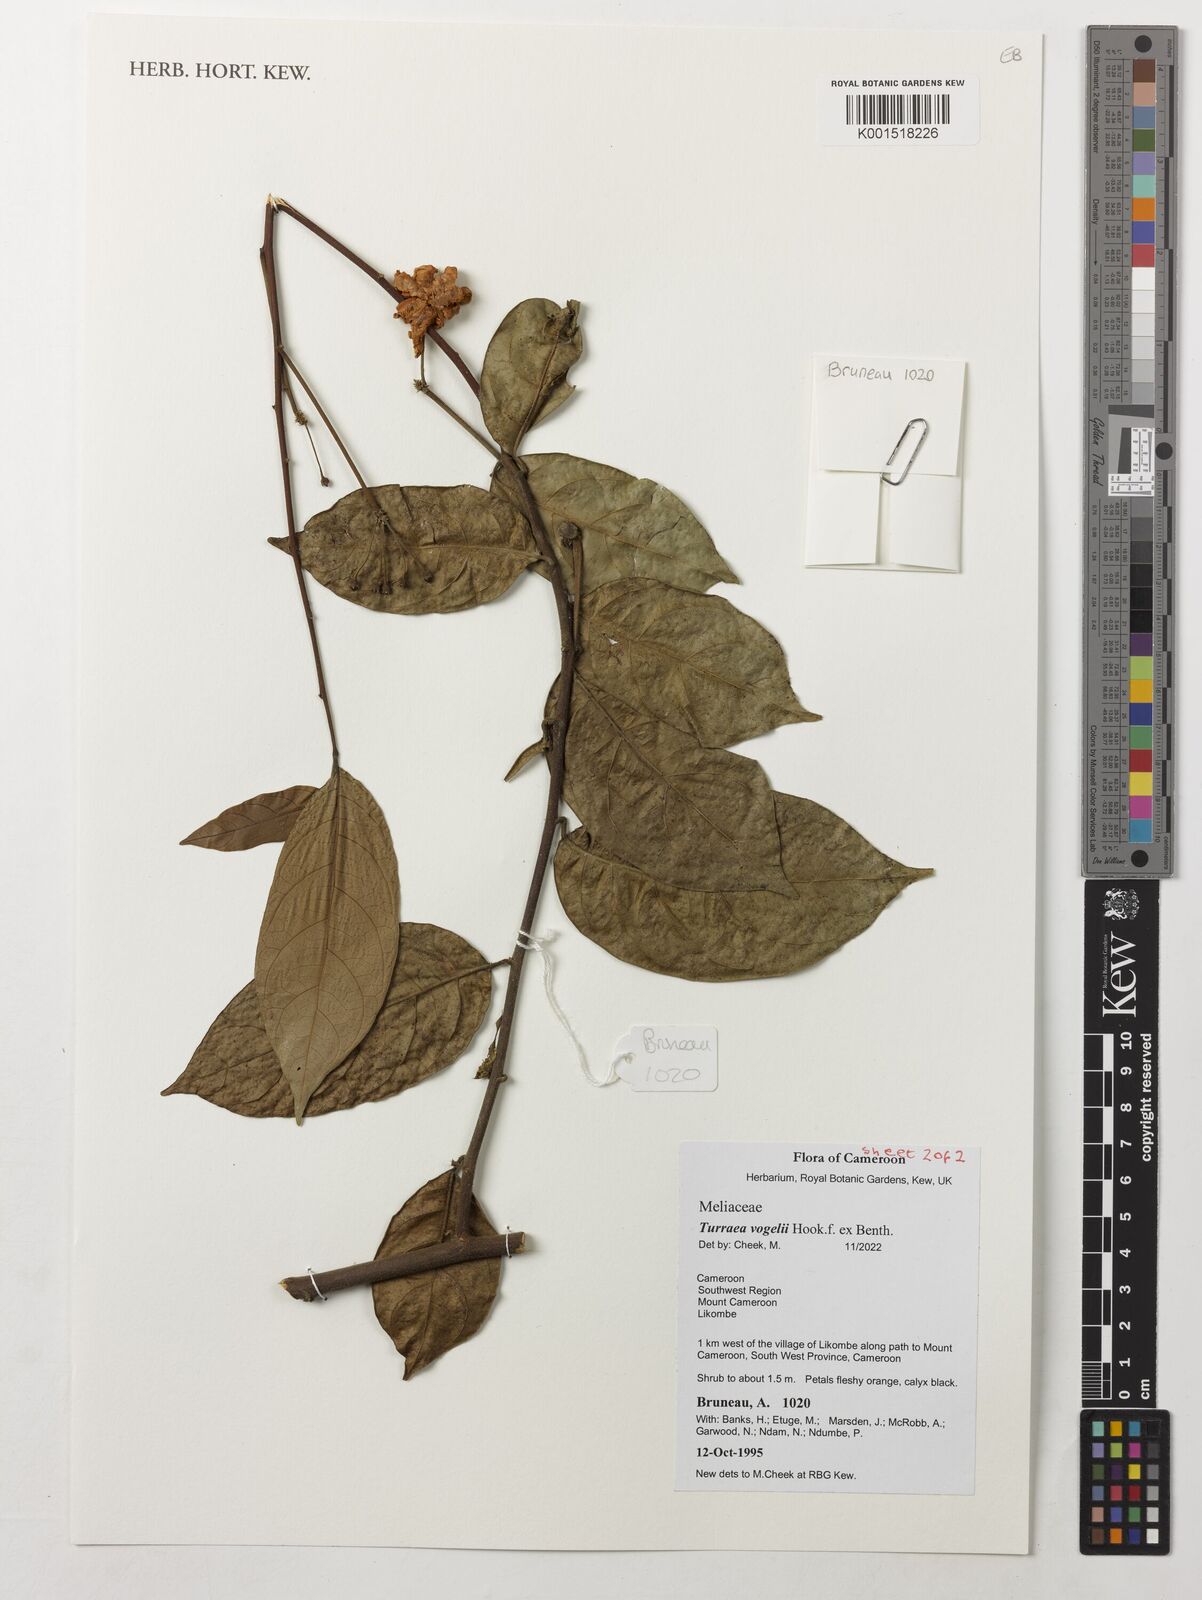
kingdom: Plantae
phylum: Tracheophyta
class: Magnoliopsida
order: Sapindales
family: Meliaceae
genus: Turraea
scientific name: Turraea vogelii
